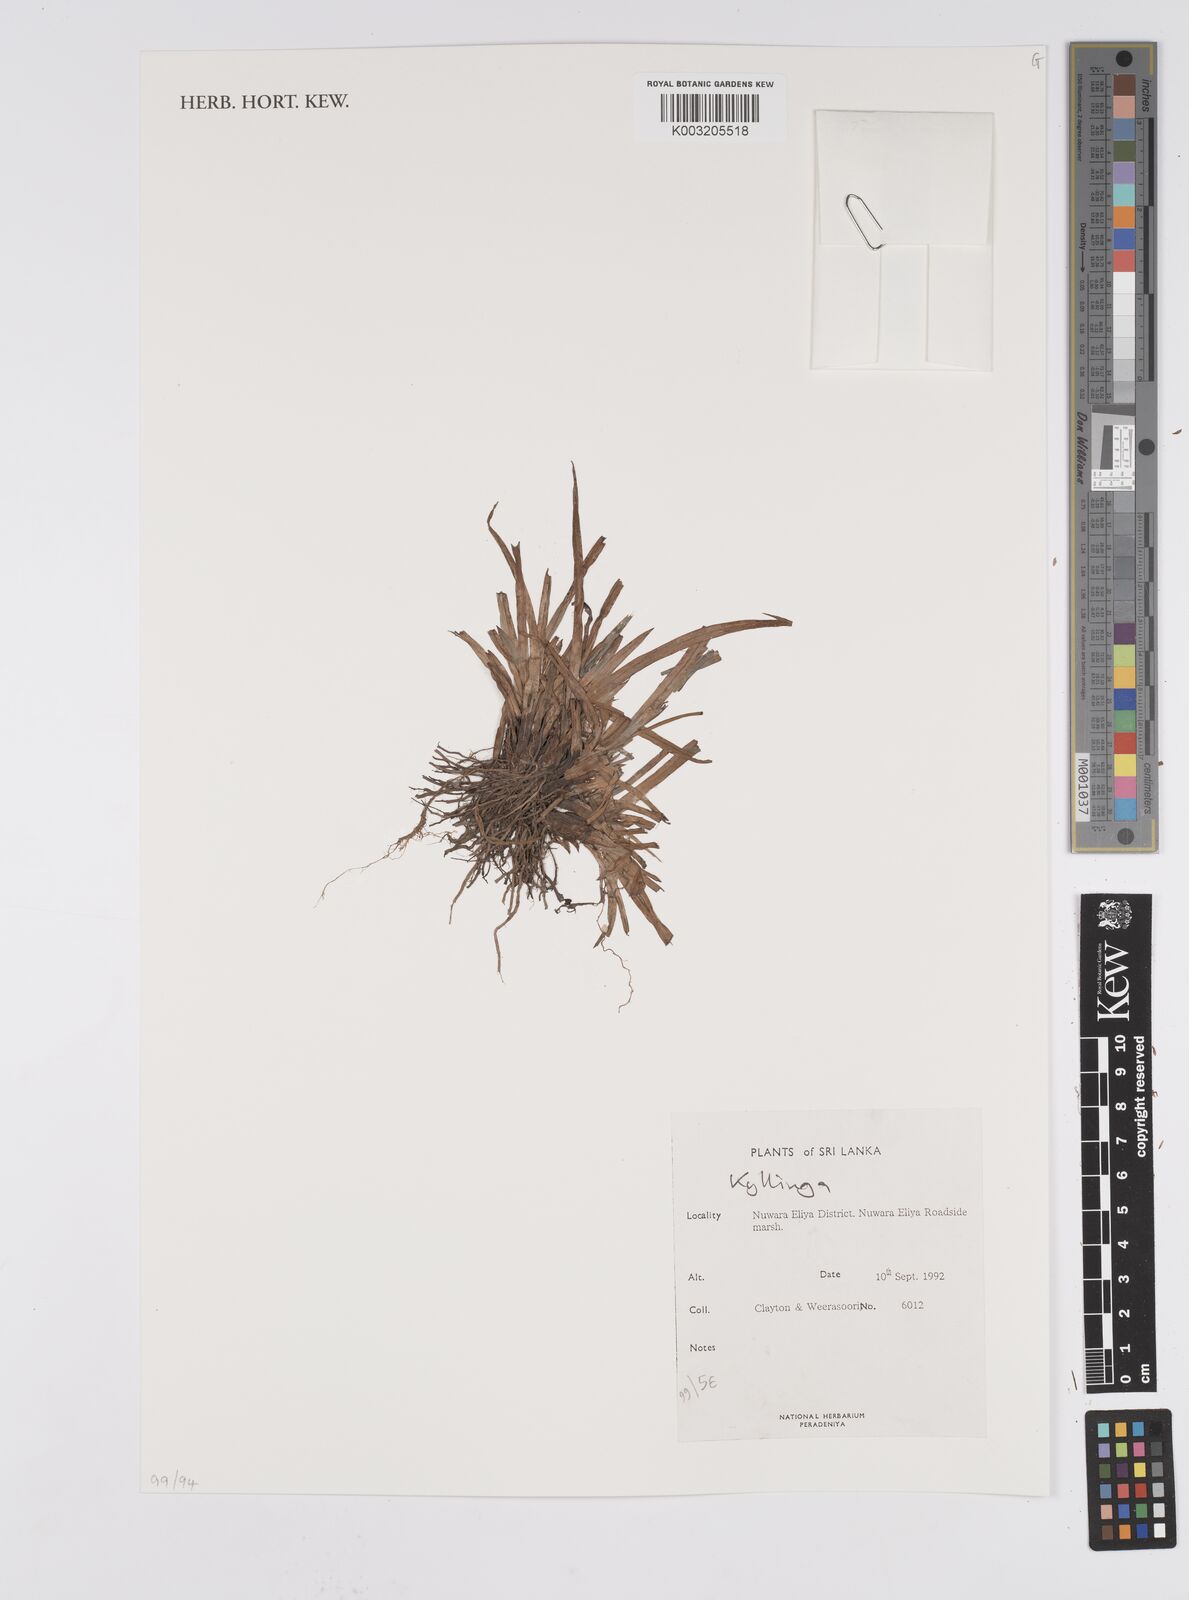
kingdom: Plantae
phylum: Tracheophyta
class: Liliopsida
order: Poales
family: Cyperaceae
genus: Cyperus
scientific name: Cyperus
